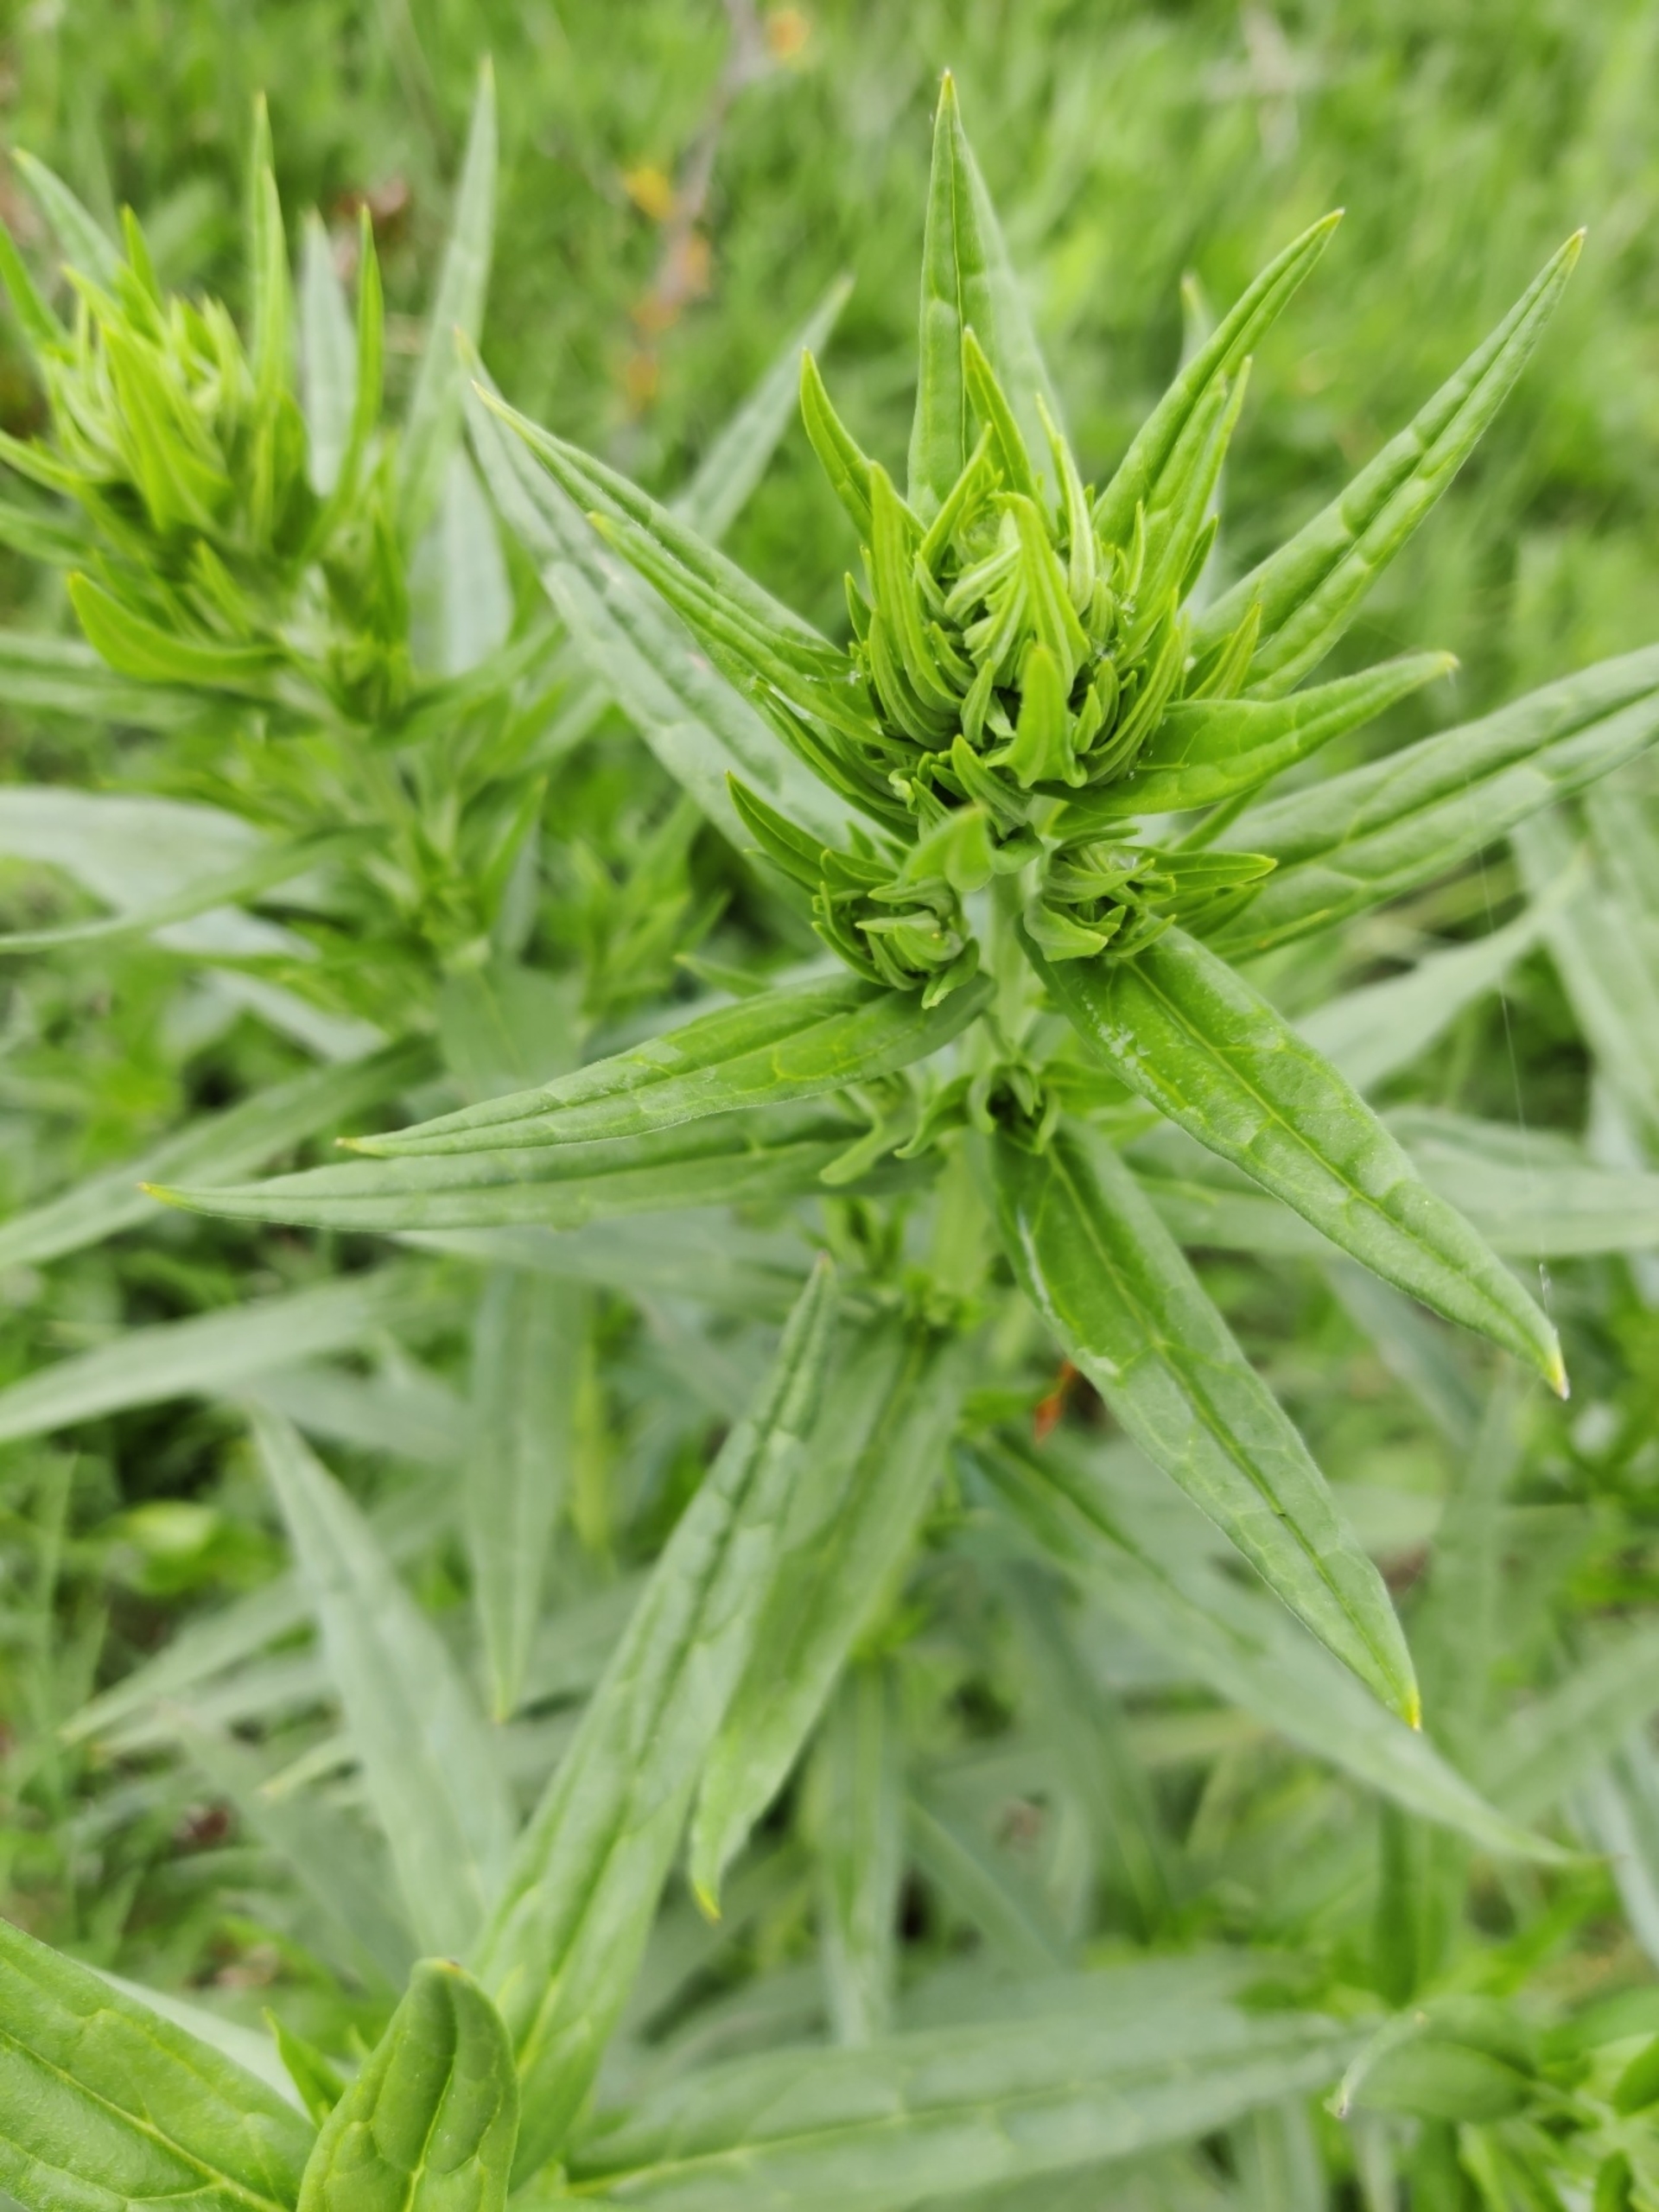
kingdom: Plantae
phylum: Tracheophyta
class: Magnoliopsida
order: Boraginales
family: Boraginaceae
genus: Lithospermum
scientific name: Lithospermum officinale
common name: Læge-stenfrø
